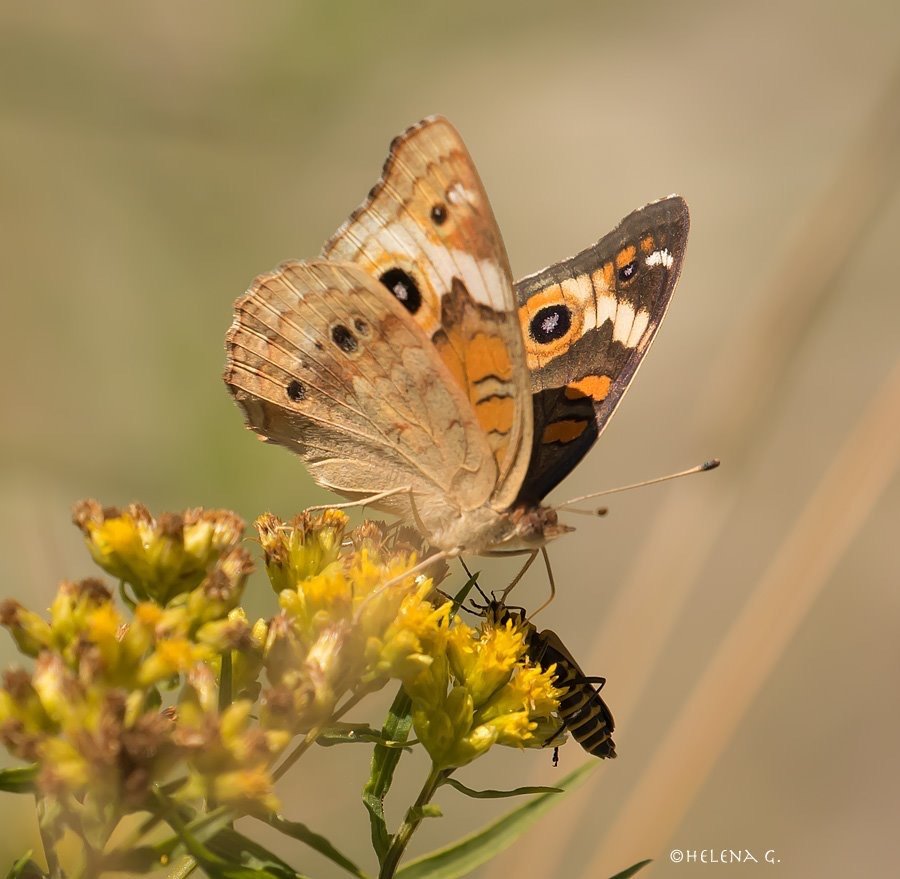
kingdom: Animalia
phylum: Arthropoda
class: Insecta
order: Lepidoptera
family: Nymphalidae
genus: Junonia
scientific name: Junonia coenia
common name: Common Buckeye
